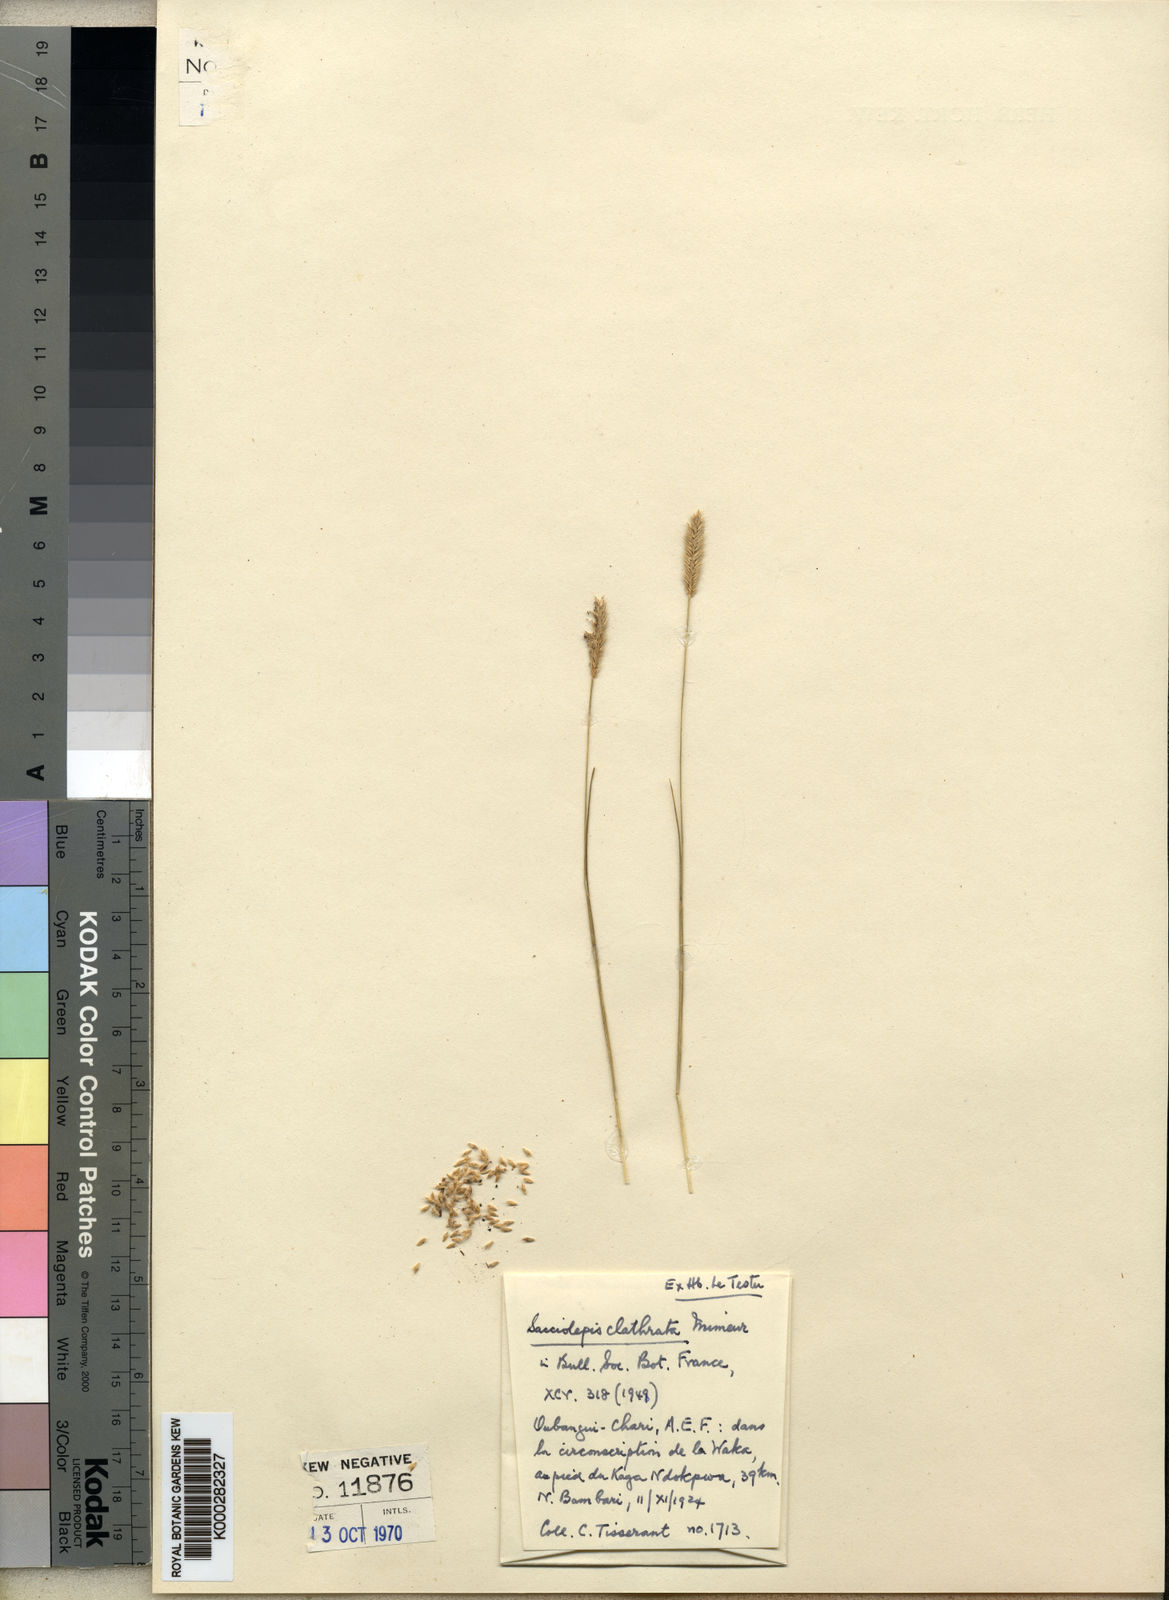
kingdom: Plantae
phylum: Tracheophyta
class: Liliopsida
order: Poales
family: Poaceae
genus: Sacciolepis
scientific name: Sacciolepis clatrata
